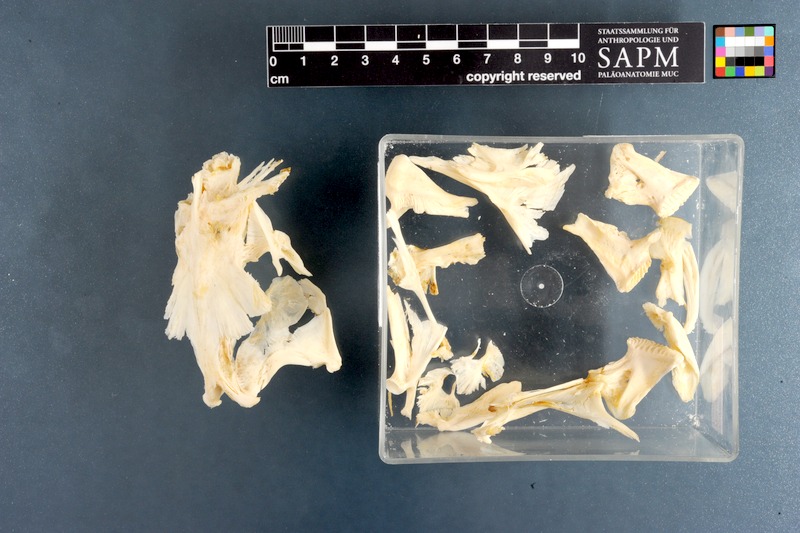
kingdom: Animalia
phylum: Chordata
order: Tetraodontiformes
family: Tetraodontidae
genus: Tetraodon
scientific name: Tetraodon lineatus
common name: Coral butterfly
